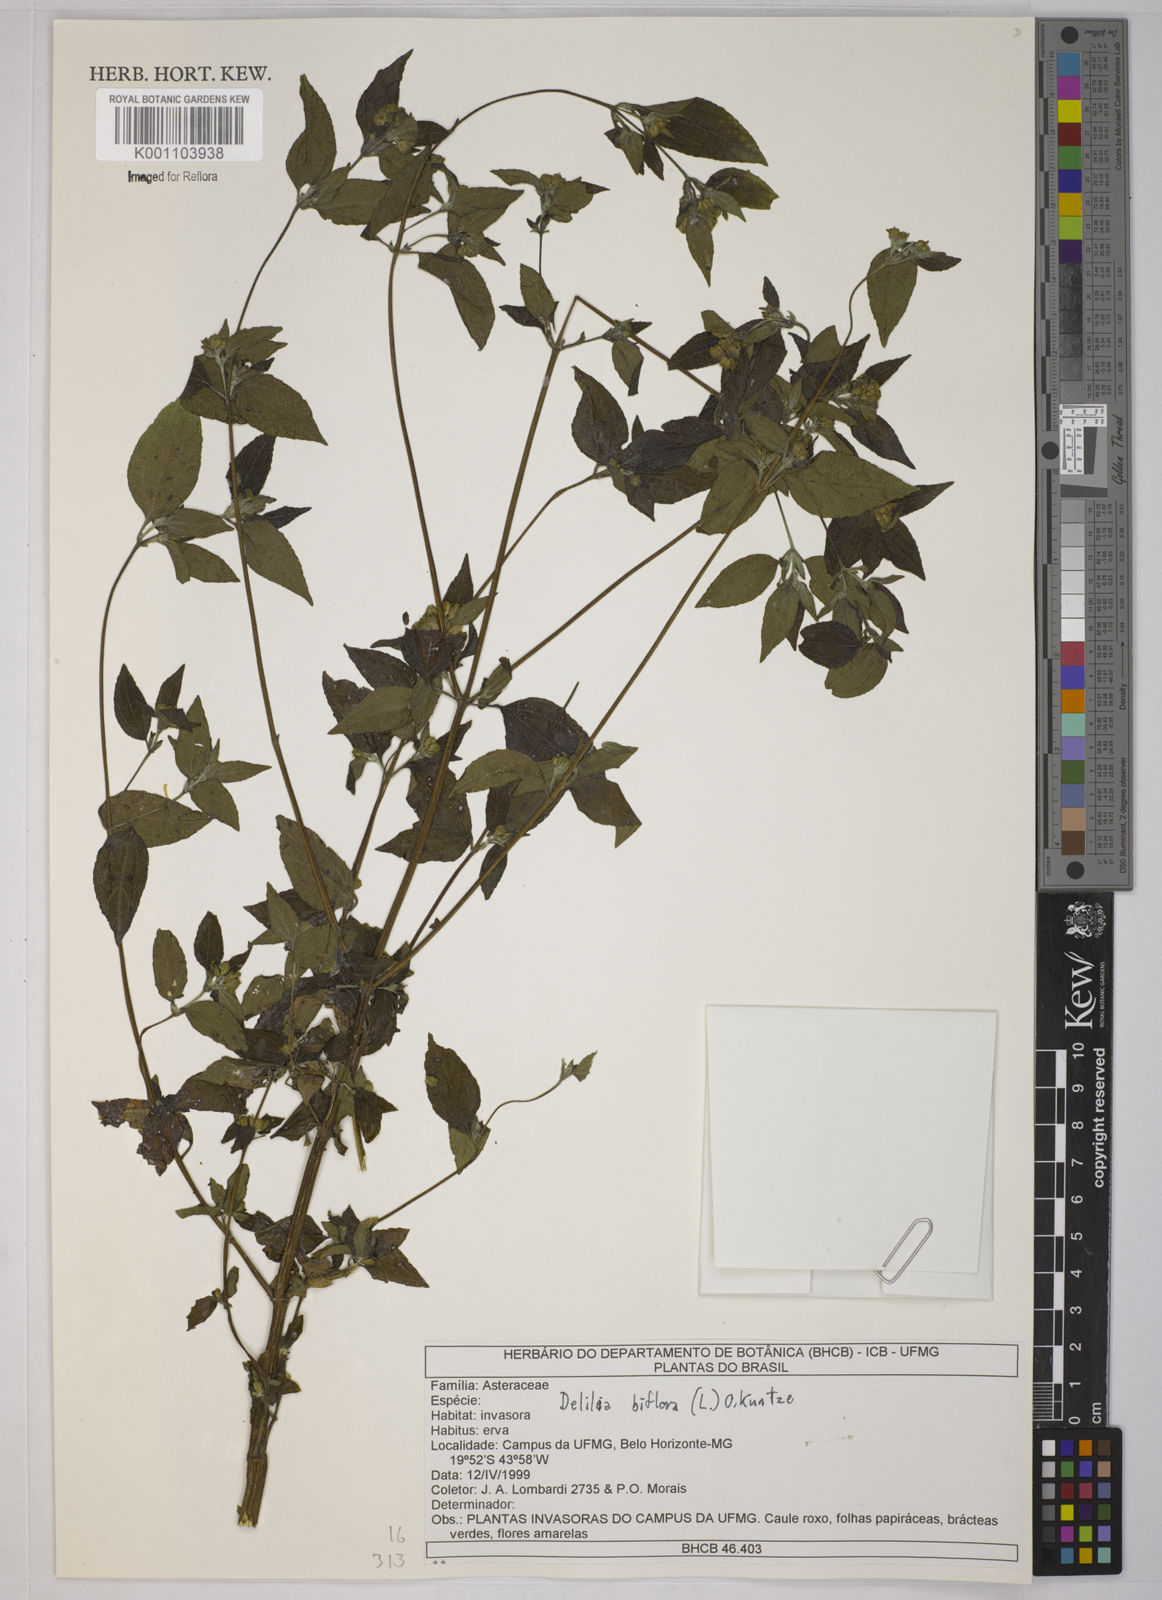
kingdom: Plantae
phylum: Tracheophyta
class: Magnoliopsida
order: Asterales
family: Asteraceae
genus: Delilia
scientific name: Delilia biflora
